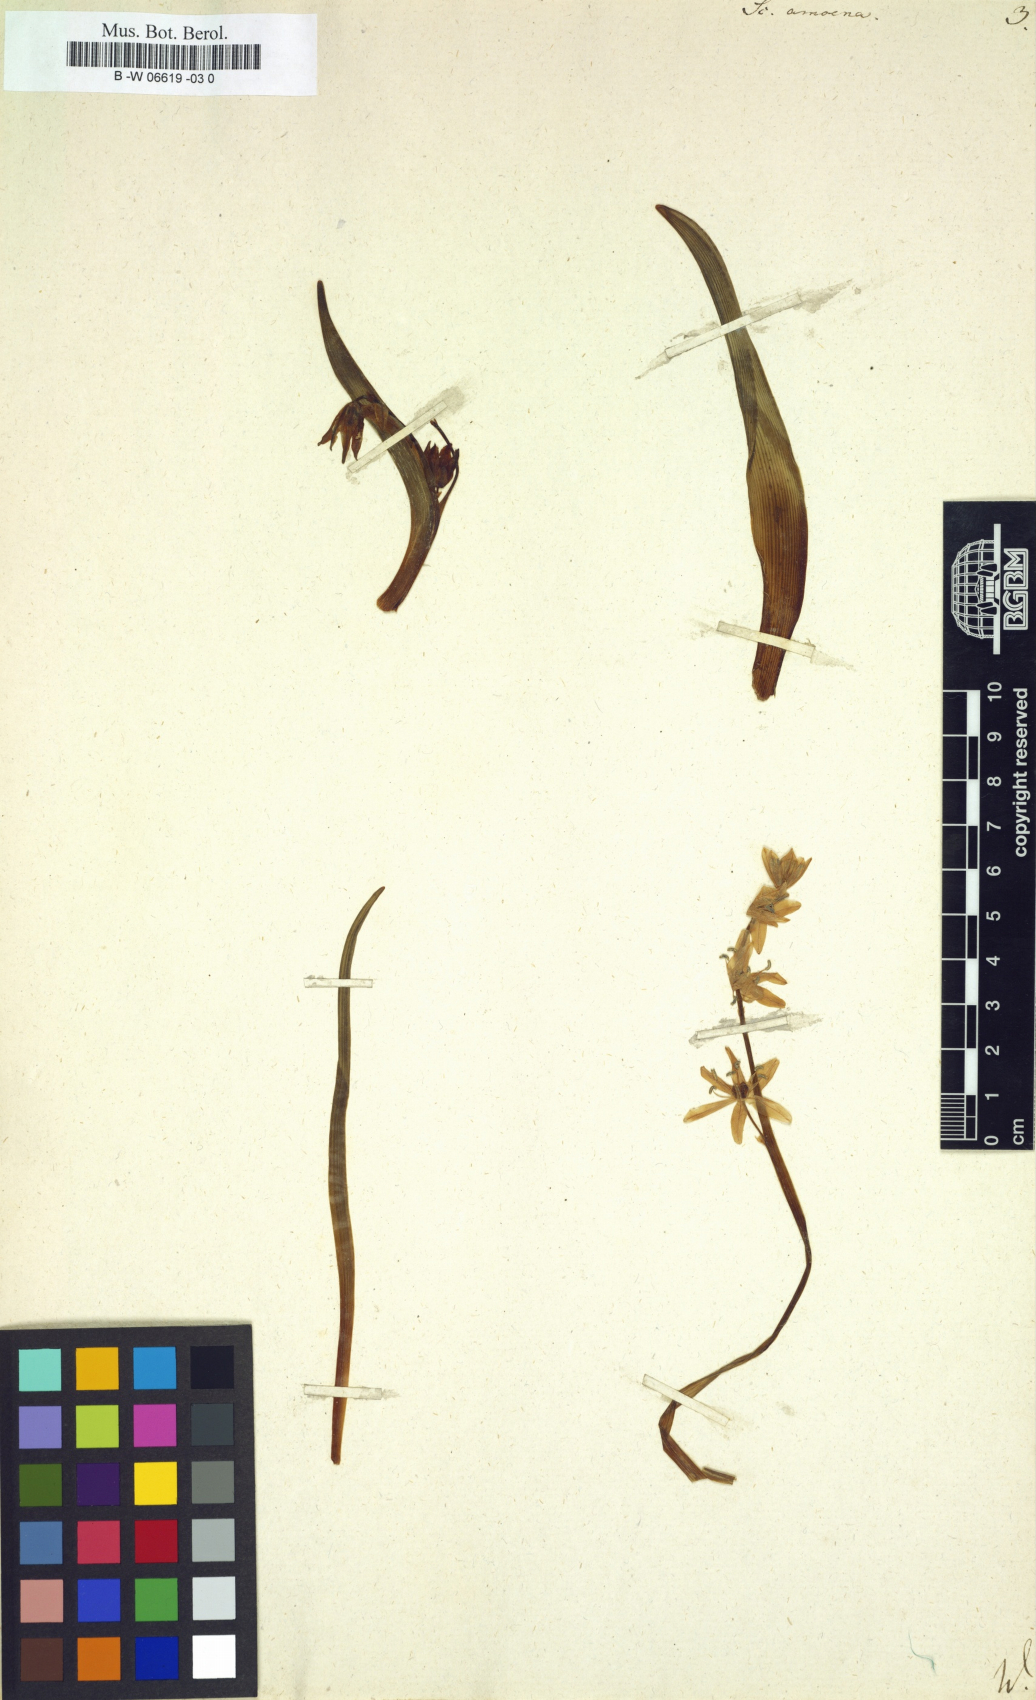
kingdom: Plantae
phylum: Tracheophyta
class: Liliopsida
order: Asparagales
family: Asparagaceae
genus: Scilla
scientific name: Scilla amoena
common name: Star-hyacinth
